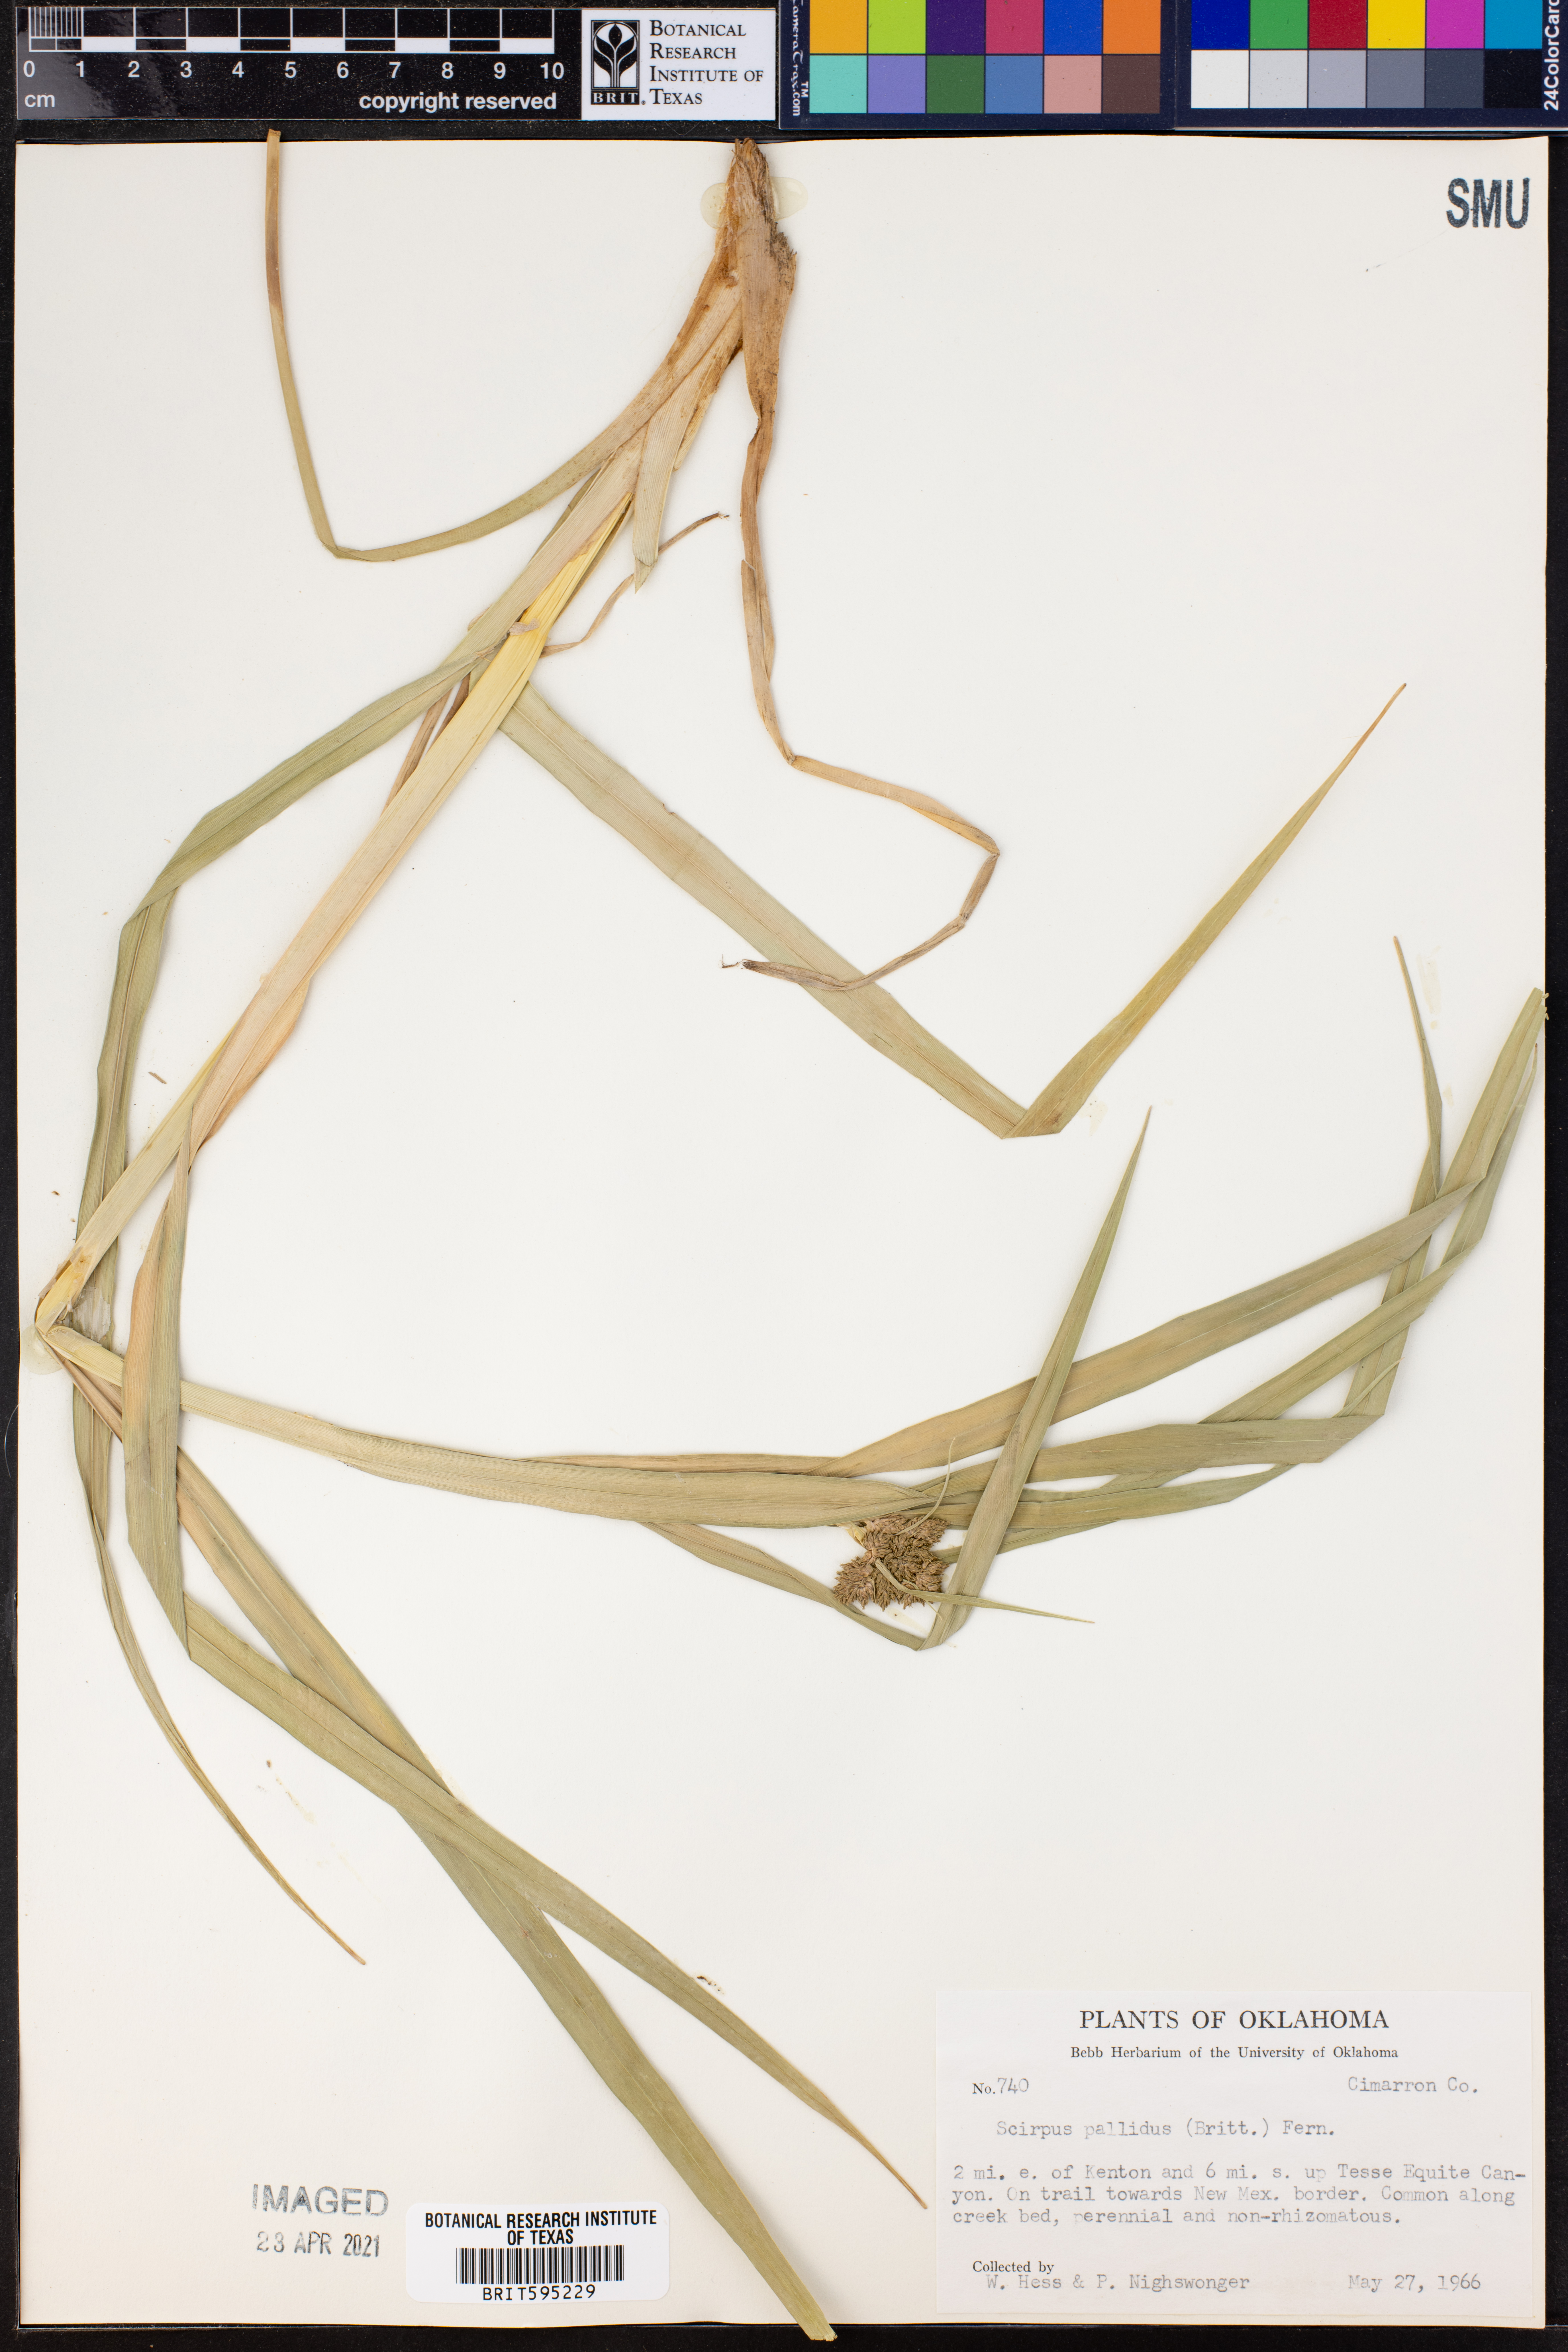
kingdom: Plantae
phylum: Tracheophyta
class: Liliopsida
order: Poales
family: Cyperaceae
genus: Scirpus
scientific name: Scirpus pallidus
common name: Cloaked bulrush
